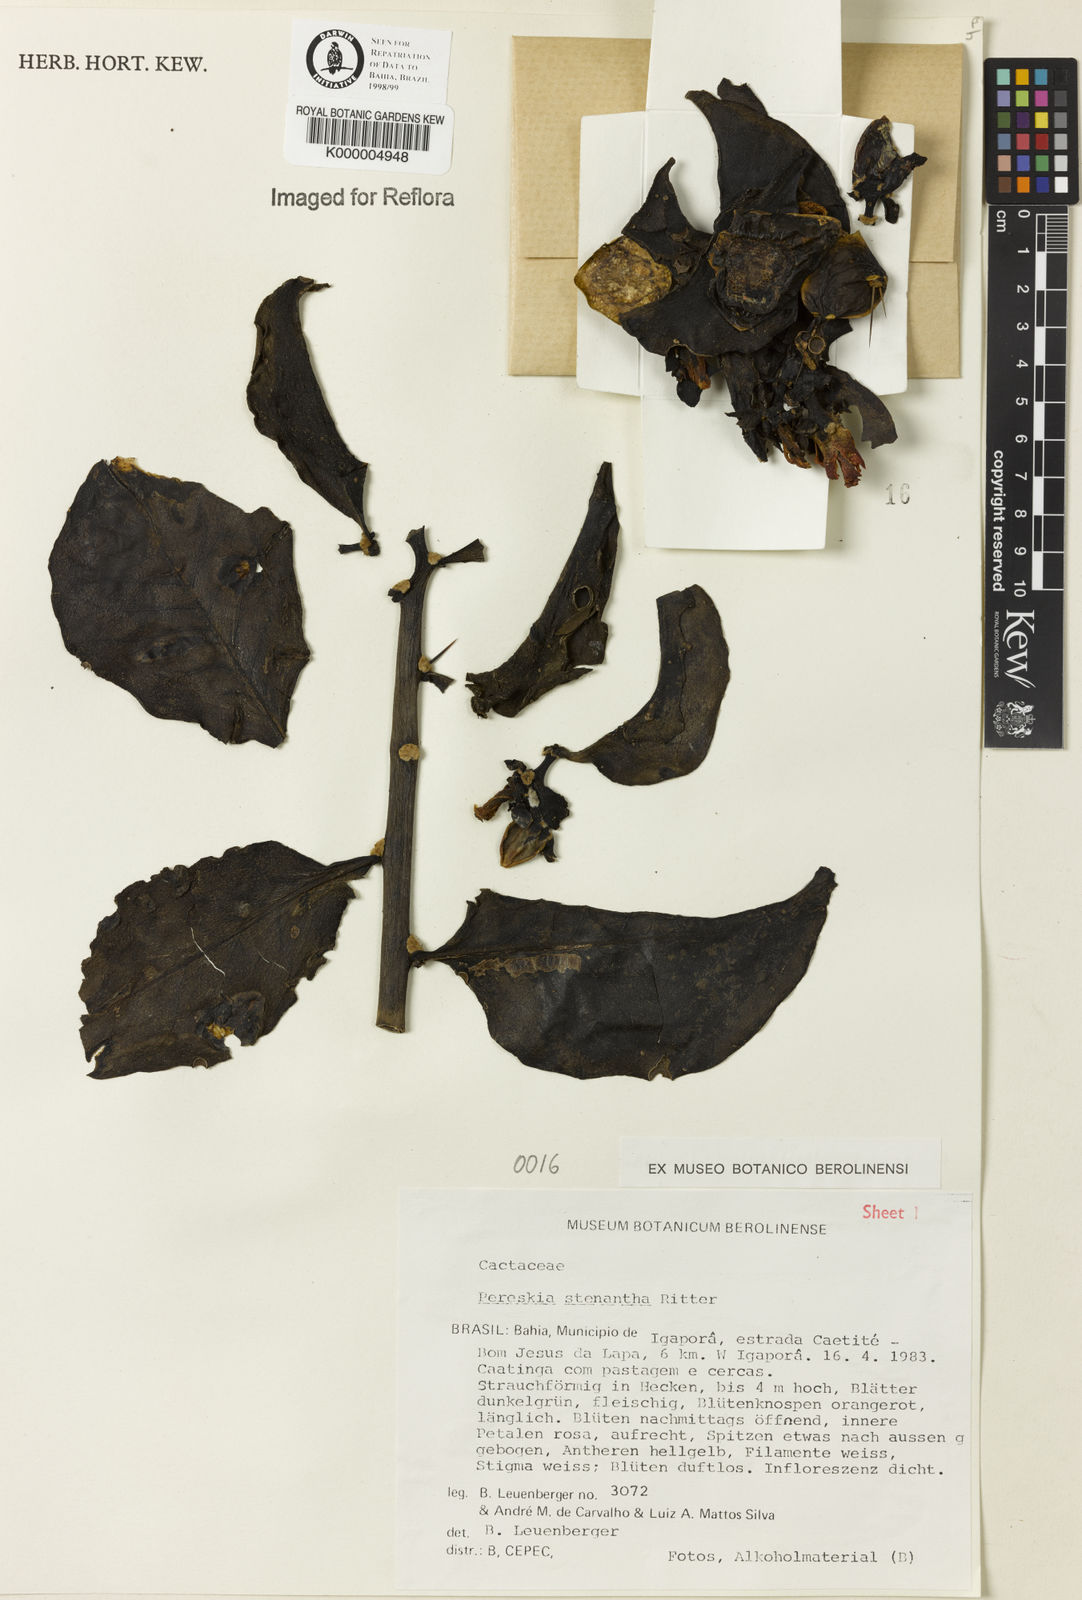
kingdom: Plantae
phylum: Tracheophyta
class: Magnoliopsida
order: Caryophyllales
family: Cactaceae
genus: Pereskia
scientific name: Pereskia stenantha
